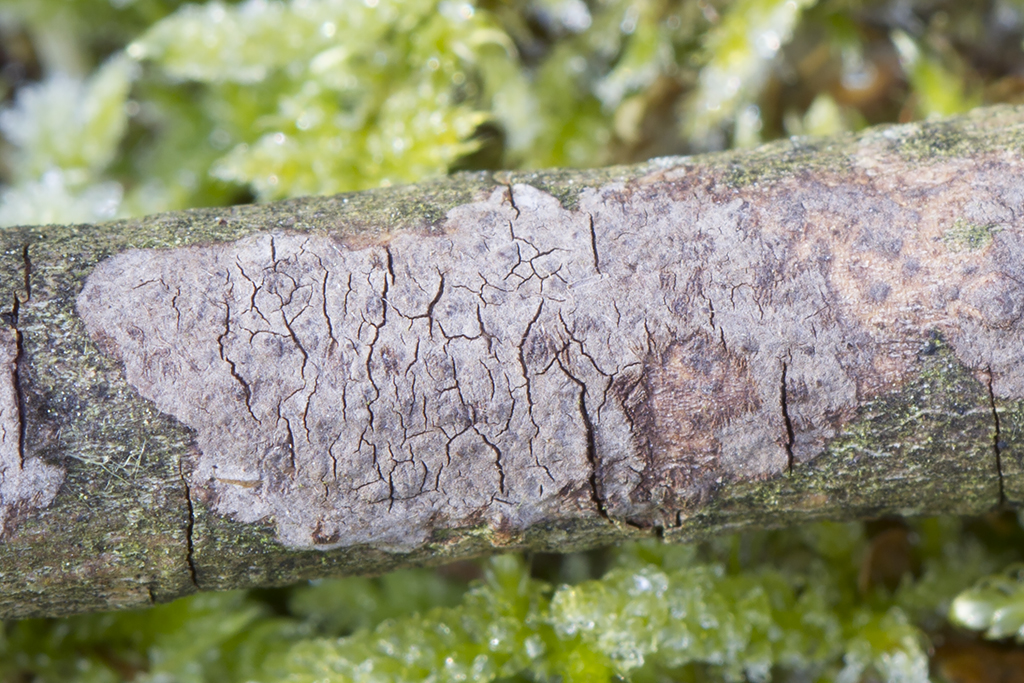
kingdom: Fungi
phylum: Basidiomycota
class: Agaricomycetes
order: Russulales
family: Peniophoraceae
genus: Peniophora
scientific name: Peniophora violaceolivida
